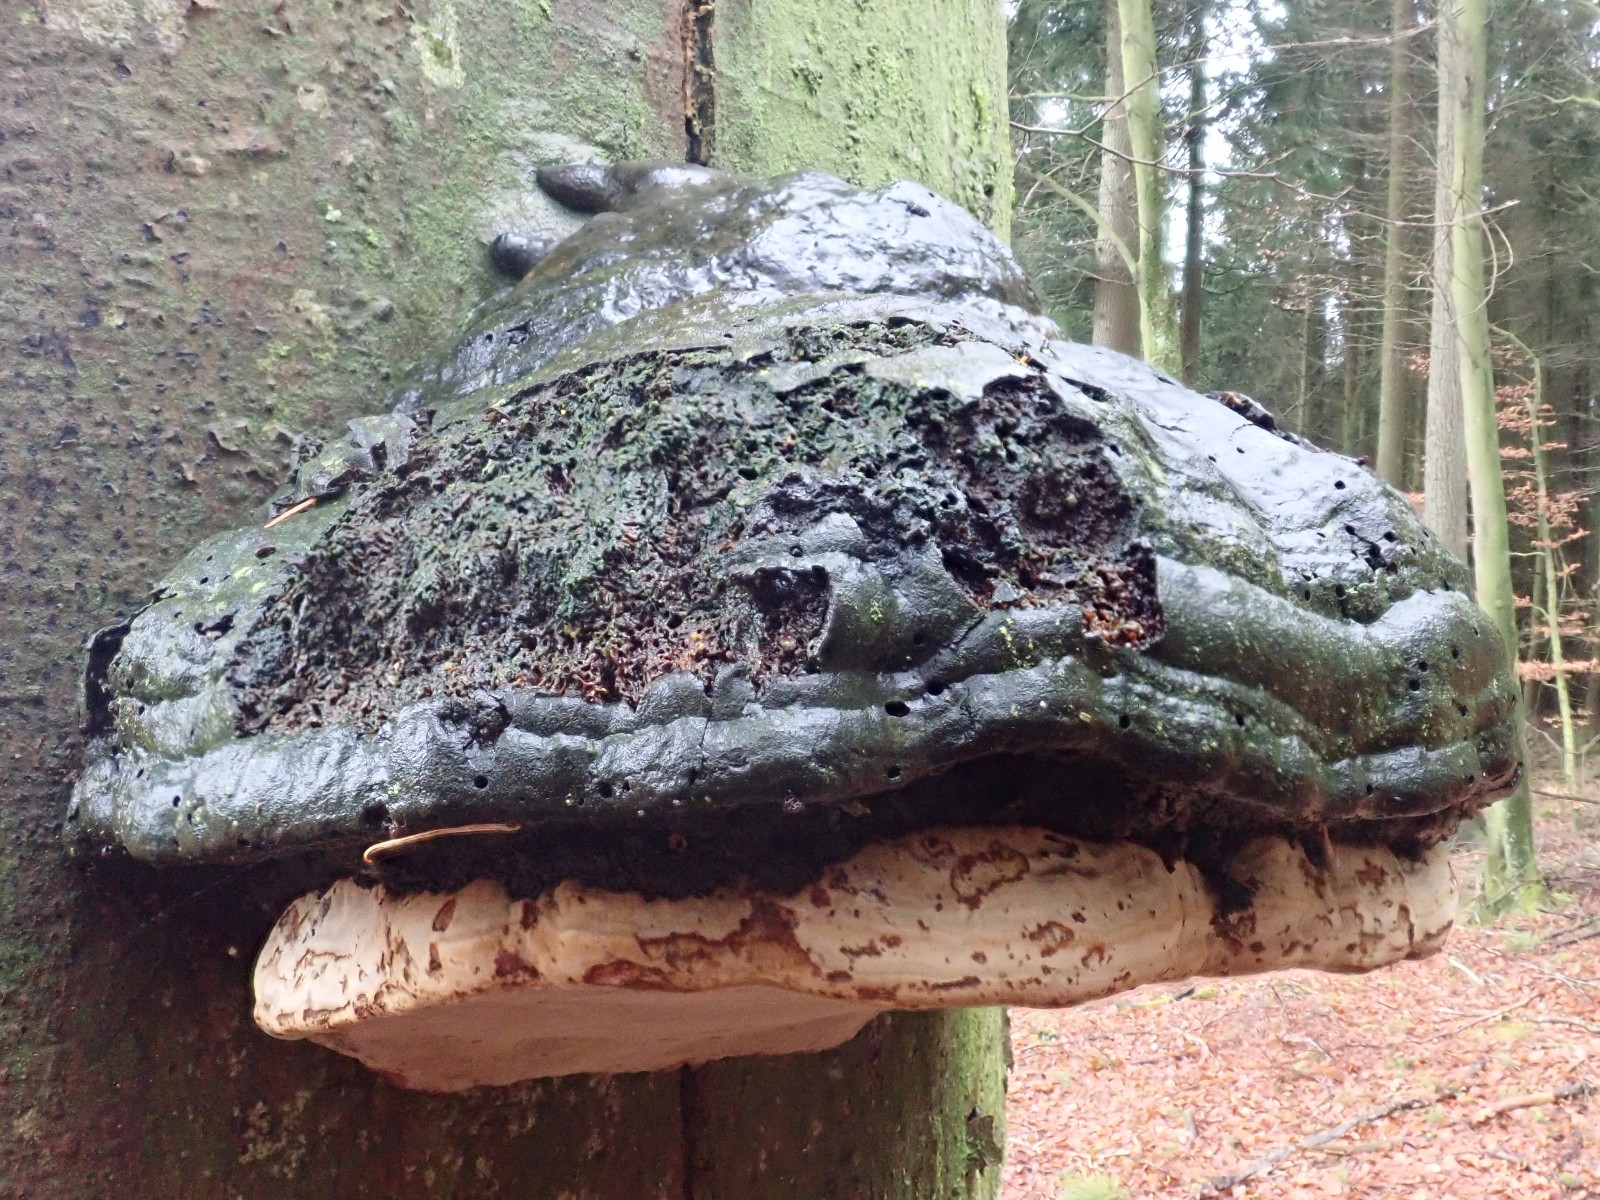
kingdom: Fungi
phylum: Basidiomycota
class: Agaricomycetes
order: Polyporales
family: Polyporaceae
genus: Fomes
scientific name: Fomes fomentarius
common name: tøndersvamp
